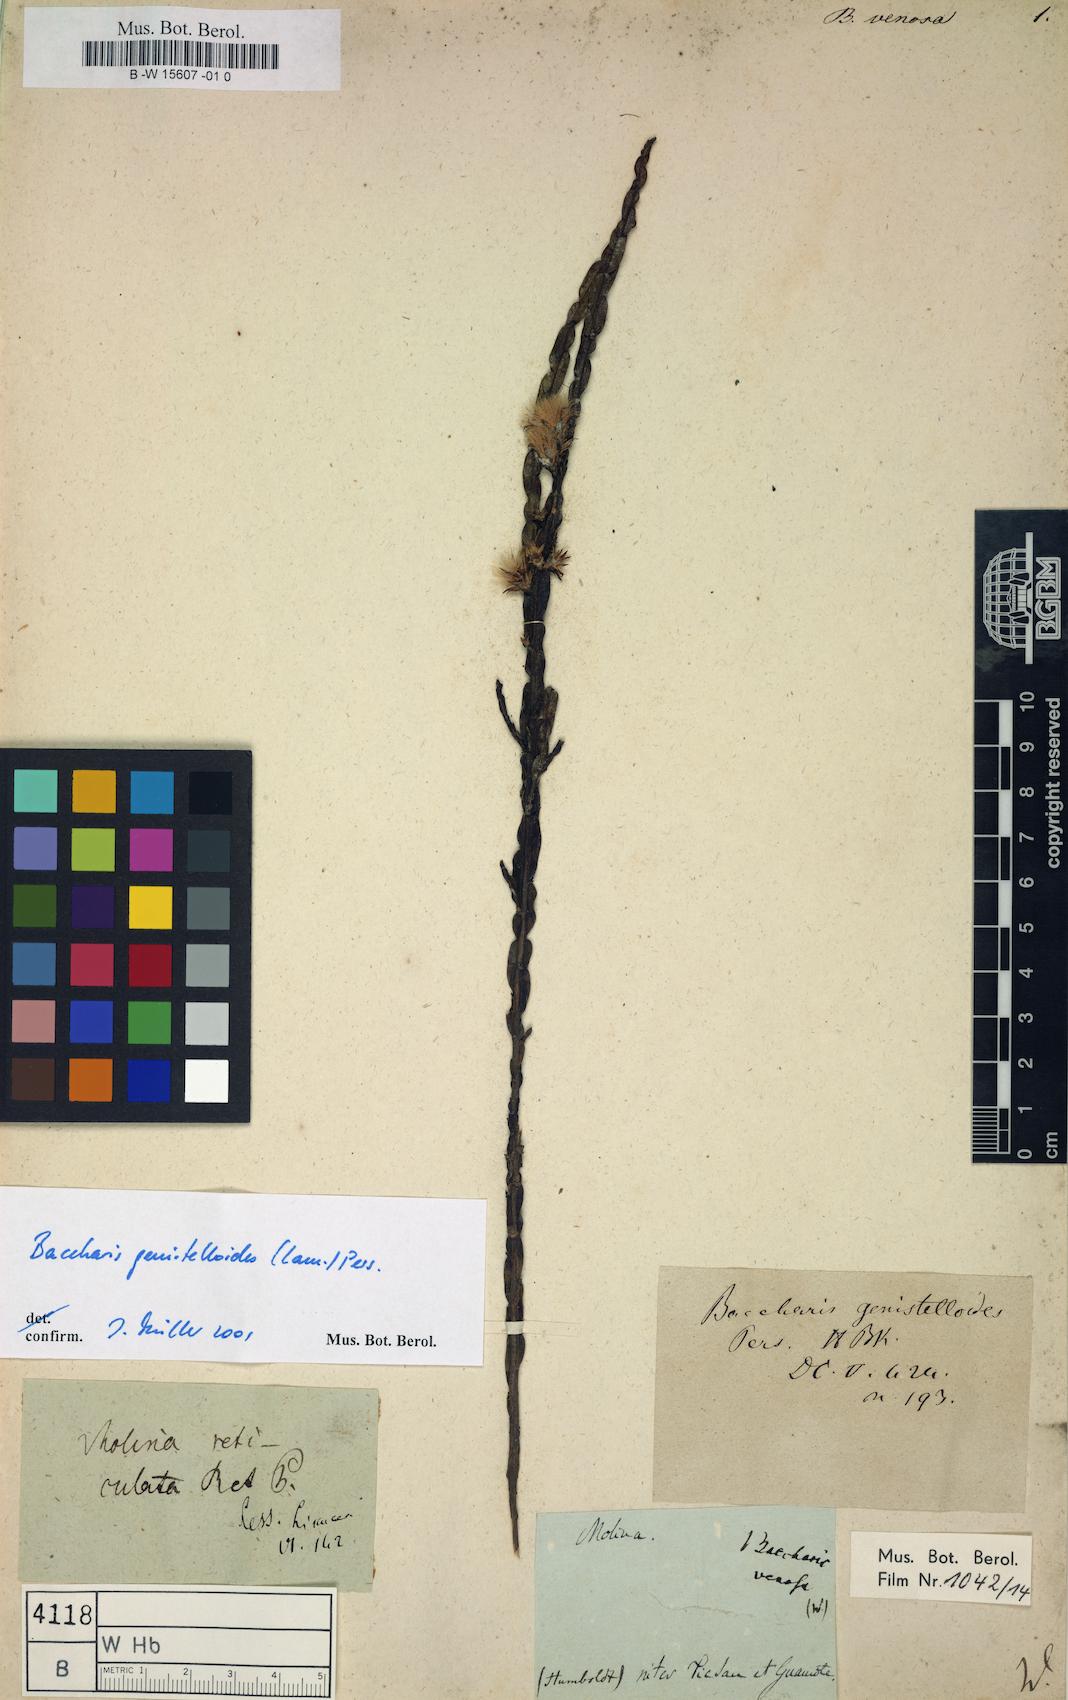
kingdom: Plantae
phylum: Tracheophyta
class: Magnoliopsida
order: Asterales
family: Asteraceae
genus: Baccharis
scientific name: Baccharis genistelloides
